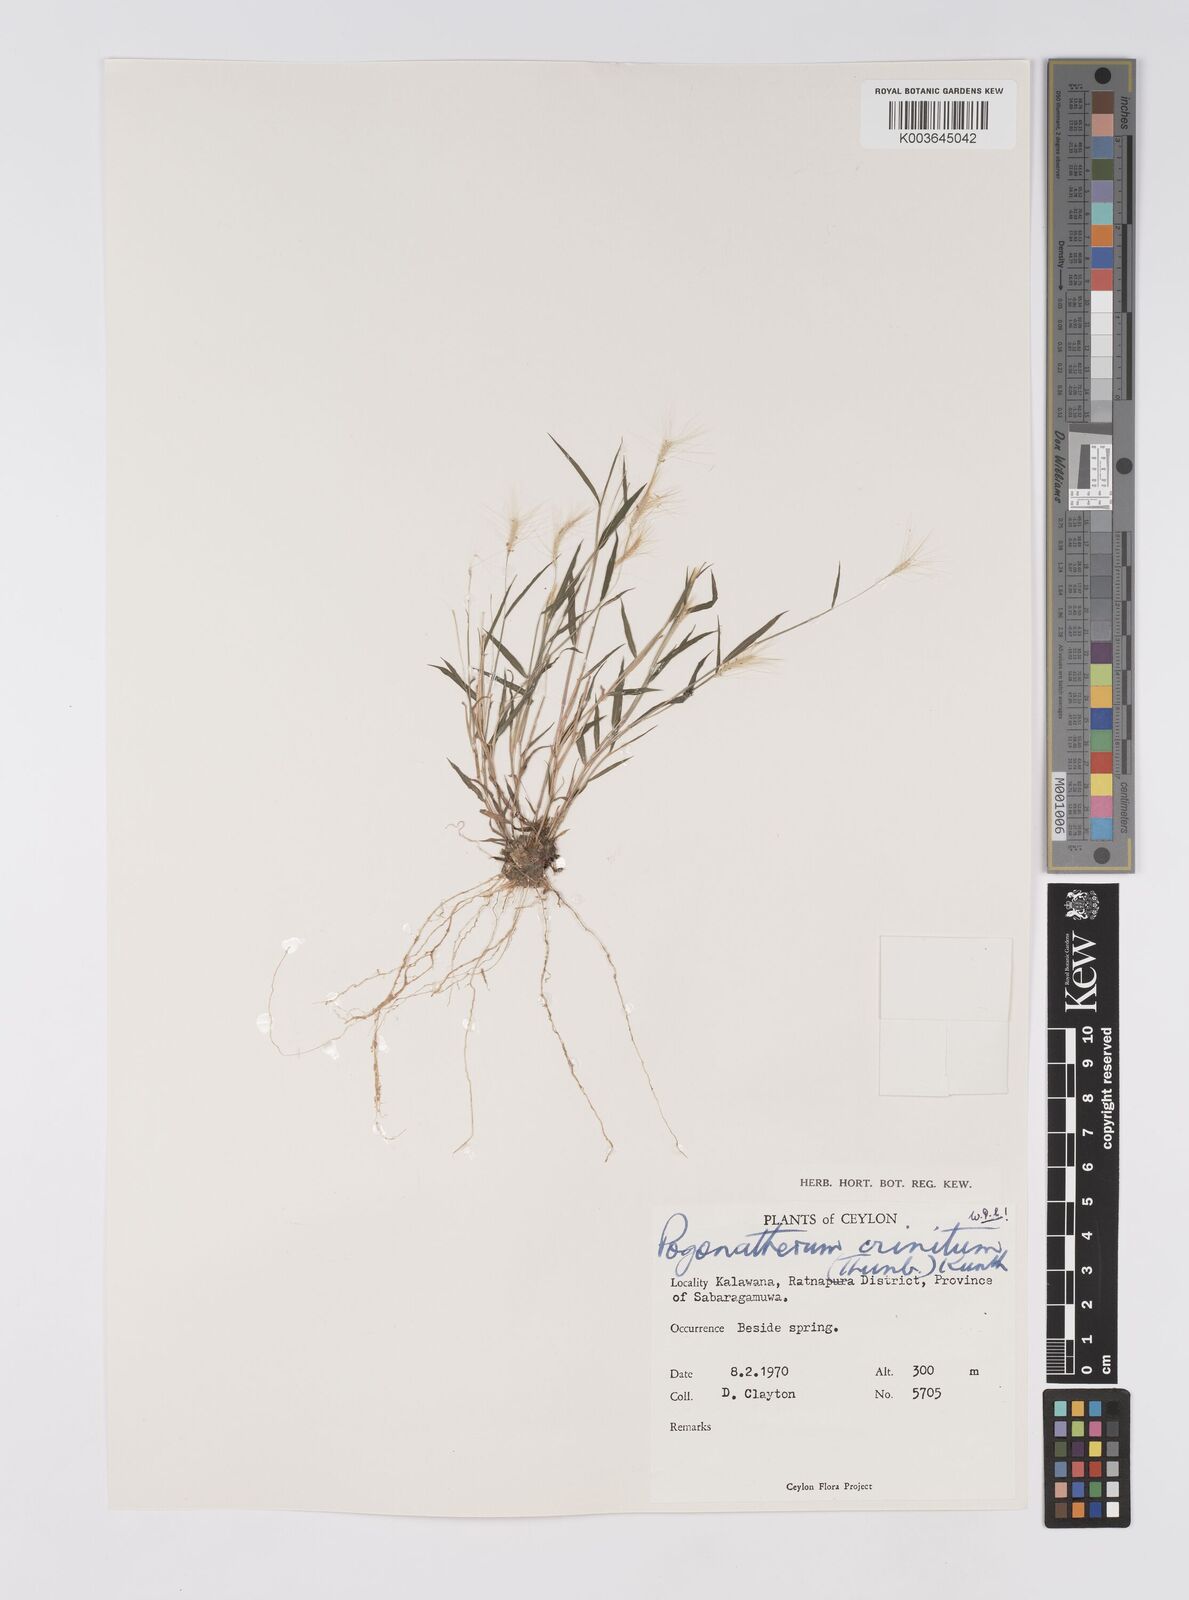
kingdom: Plantae
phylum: Tracheophyta
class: Liliopsida
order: Poales
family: Poaceae
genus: Pogonatherum
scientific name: Pogonatherum crinitum
